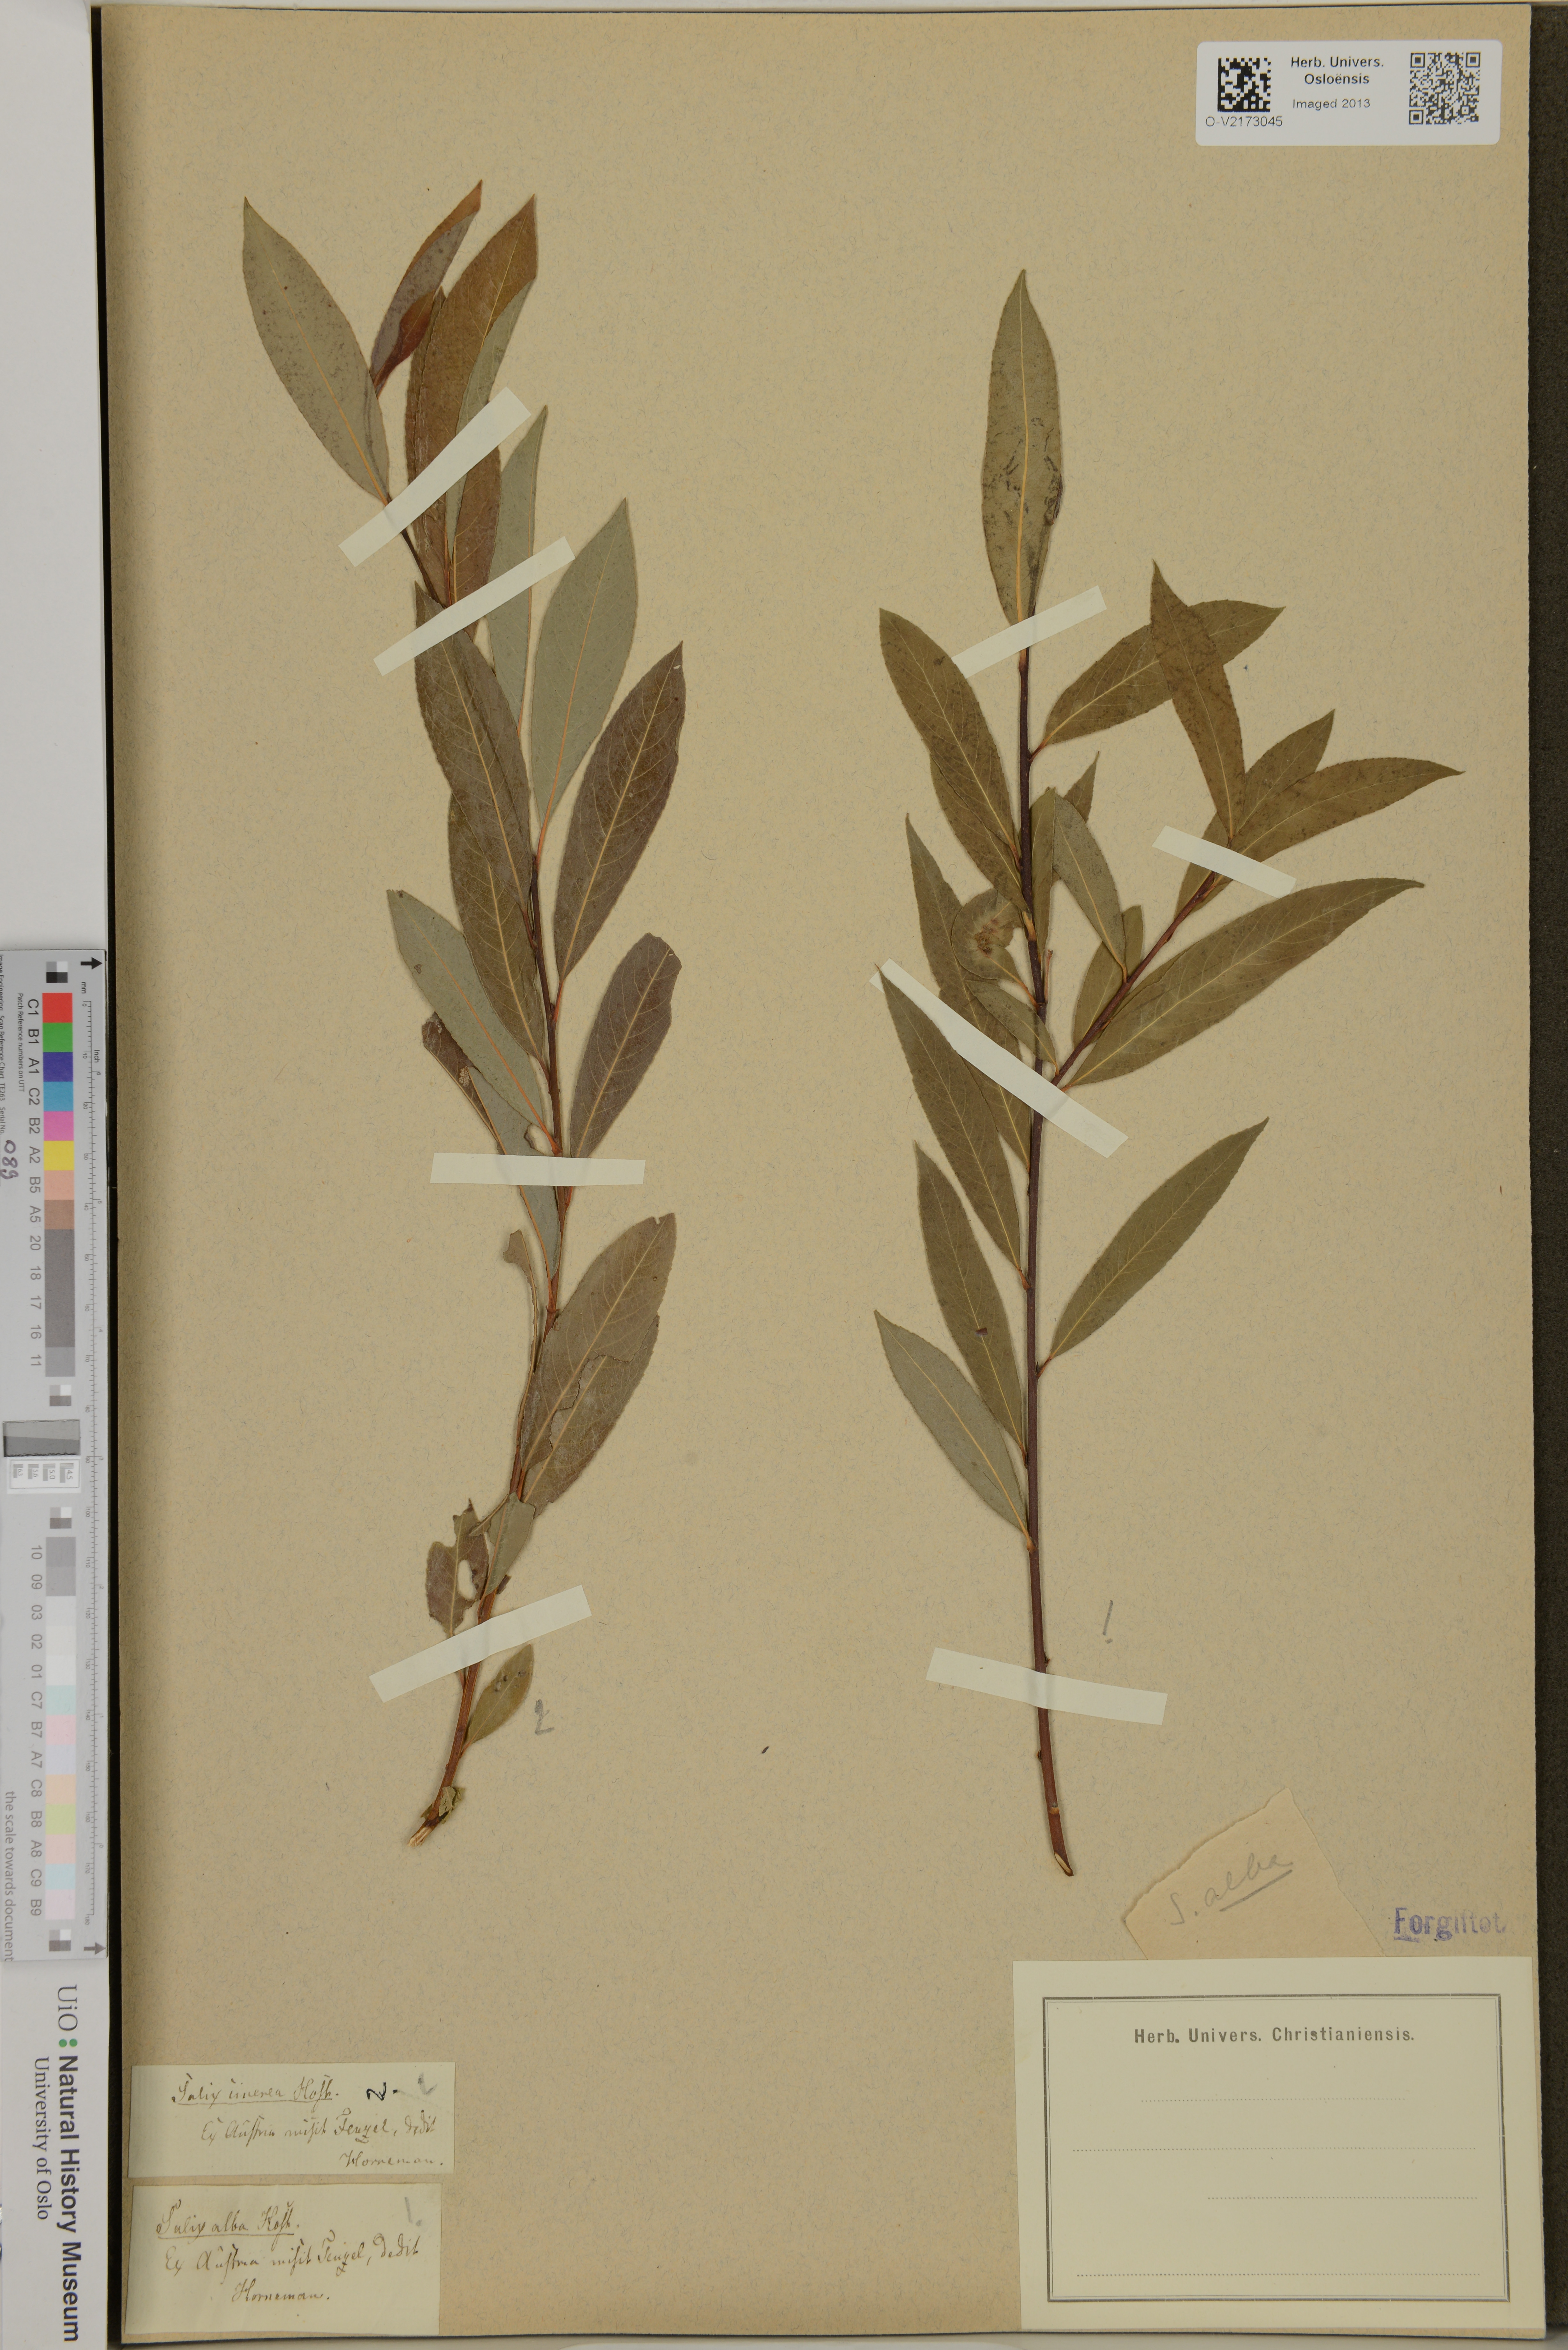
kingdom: Plantae
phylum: Tracheophyta
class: Magnoliopsida
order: Malpighiales
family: Salicaceae
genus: Salix
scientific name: Salix alba
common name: White willow
